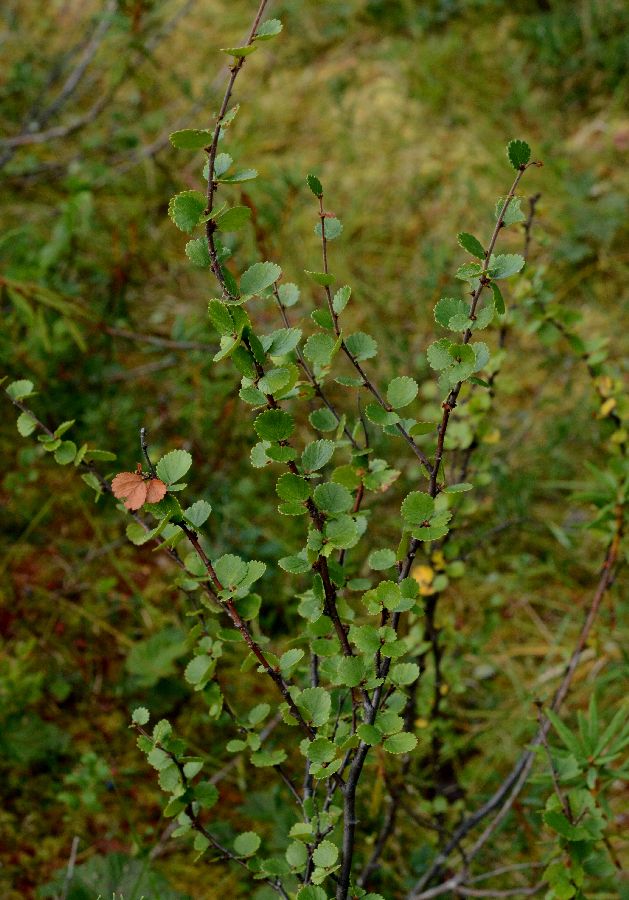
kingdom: Plantae
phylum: Tracheophyta
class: Magnoliopsida
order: Fagales
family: Betulaceae
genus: Betula
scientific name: Betula nana
